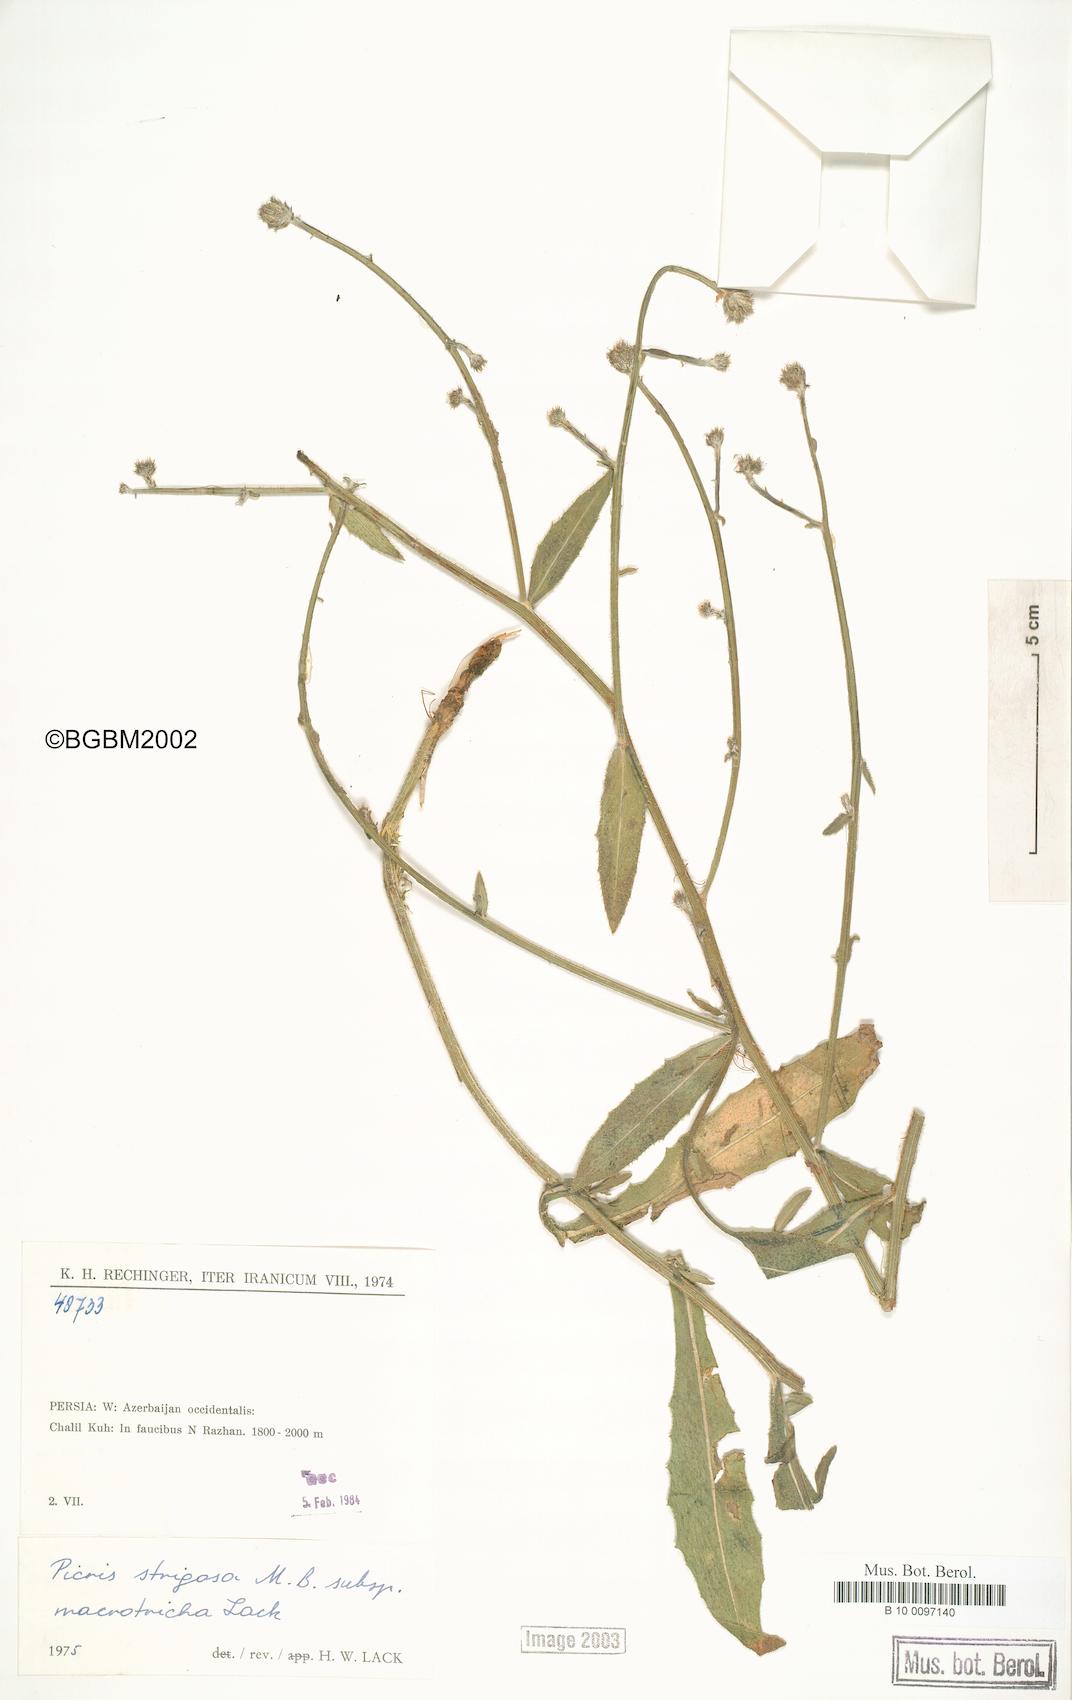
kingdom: Plantae
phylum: Tracheophyta
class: Magnoliopsida
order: Asterales
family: Asteraceae
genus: Picris
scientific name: Picris strigosa
